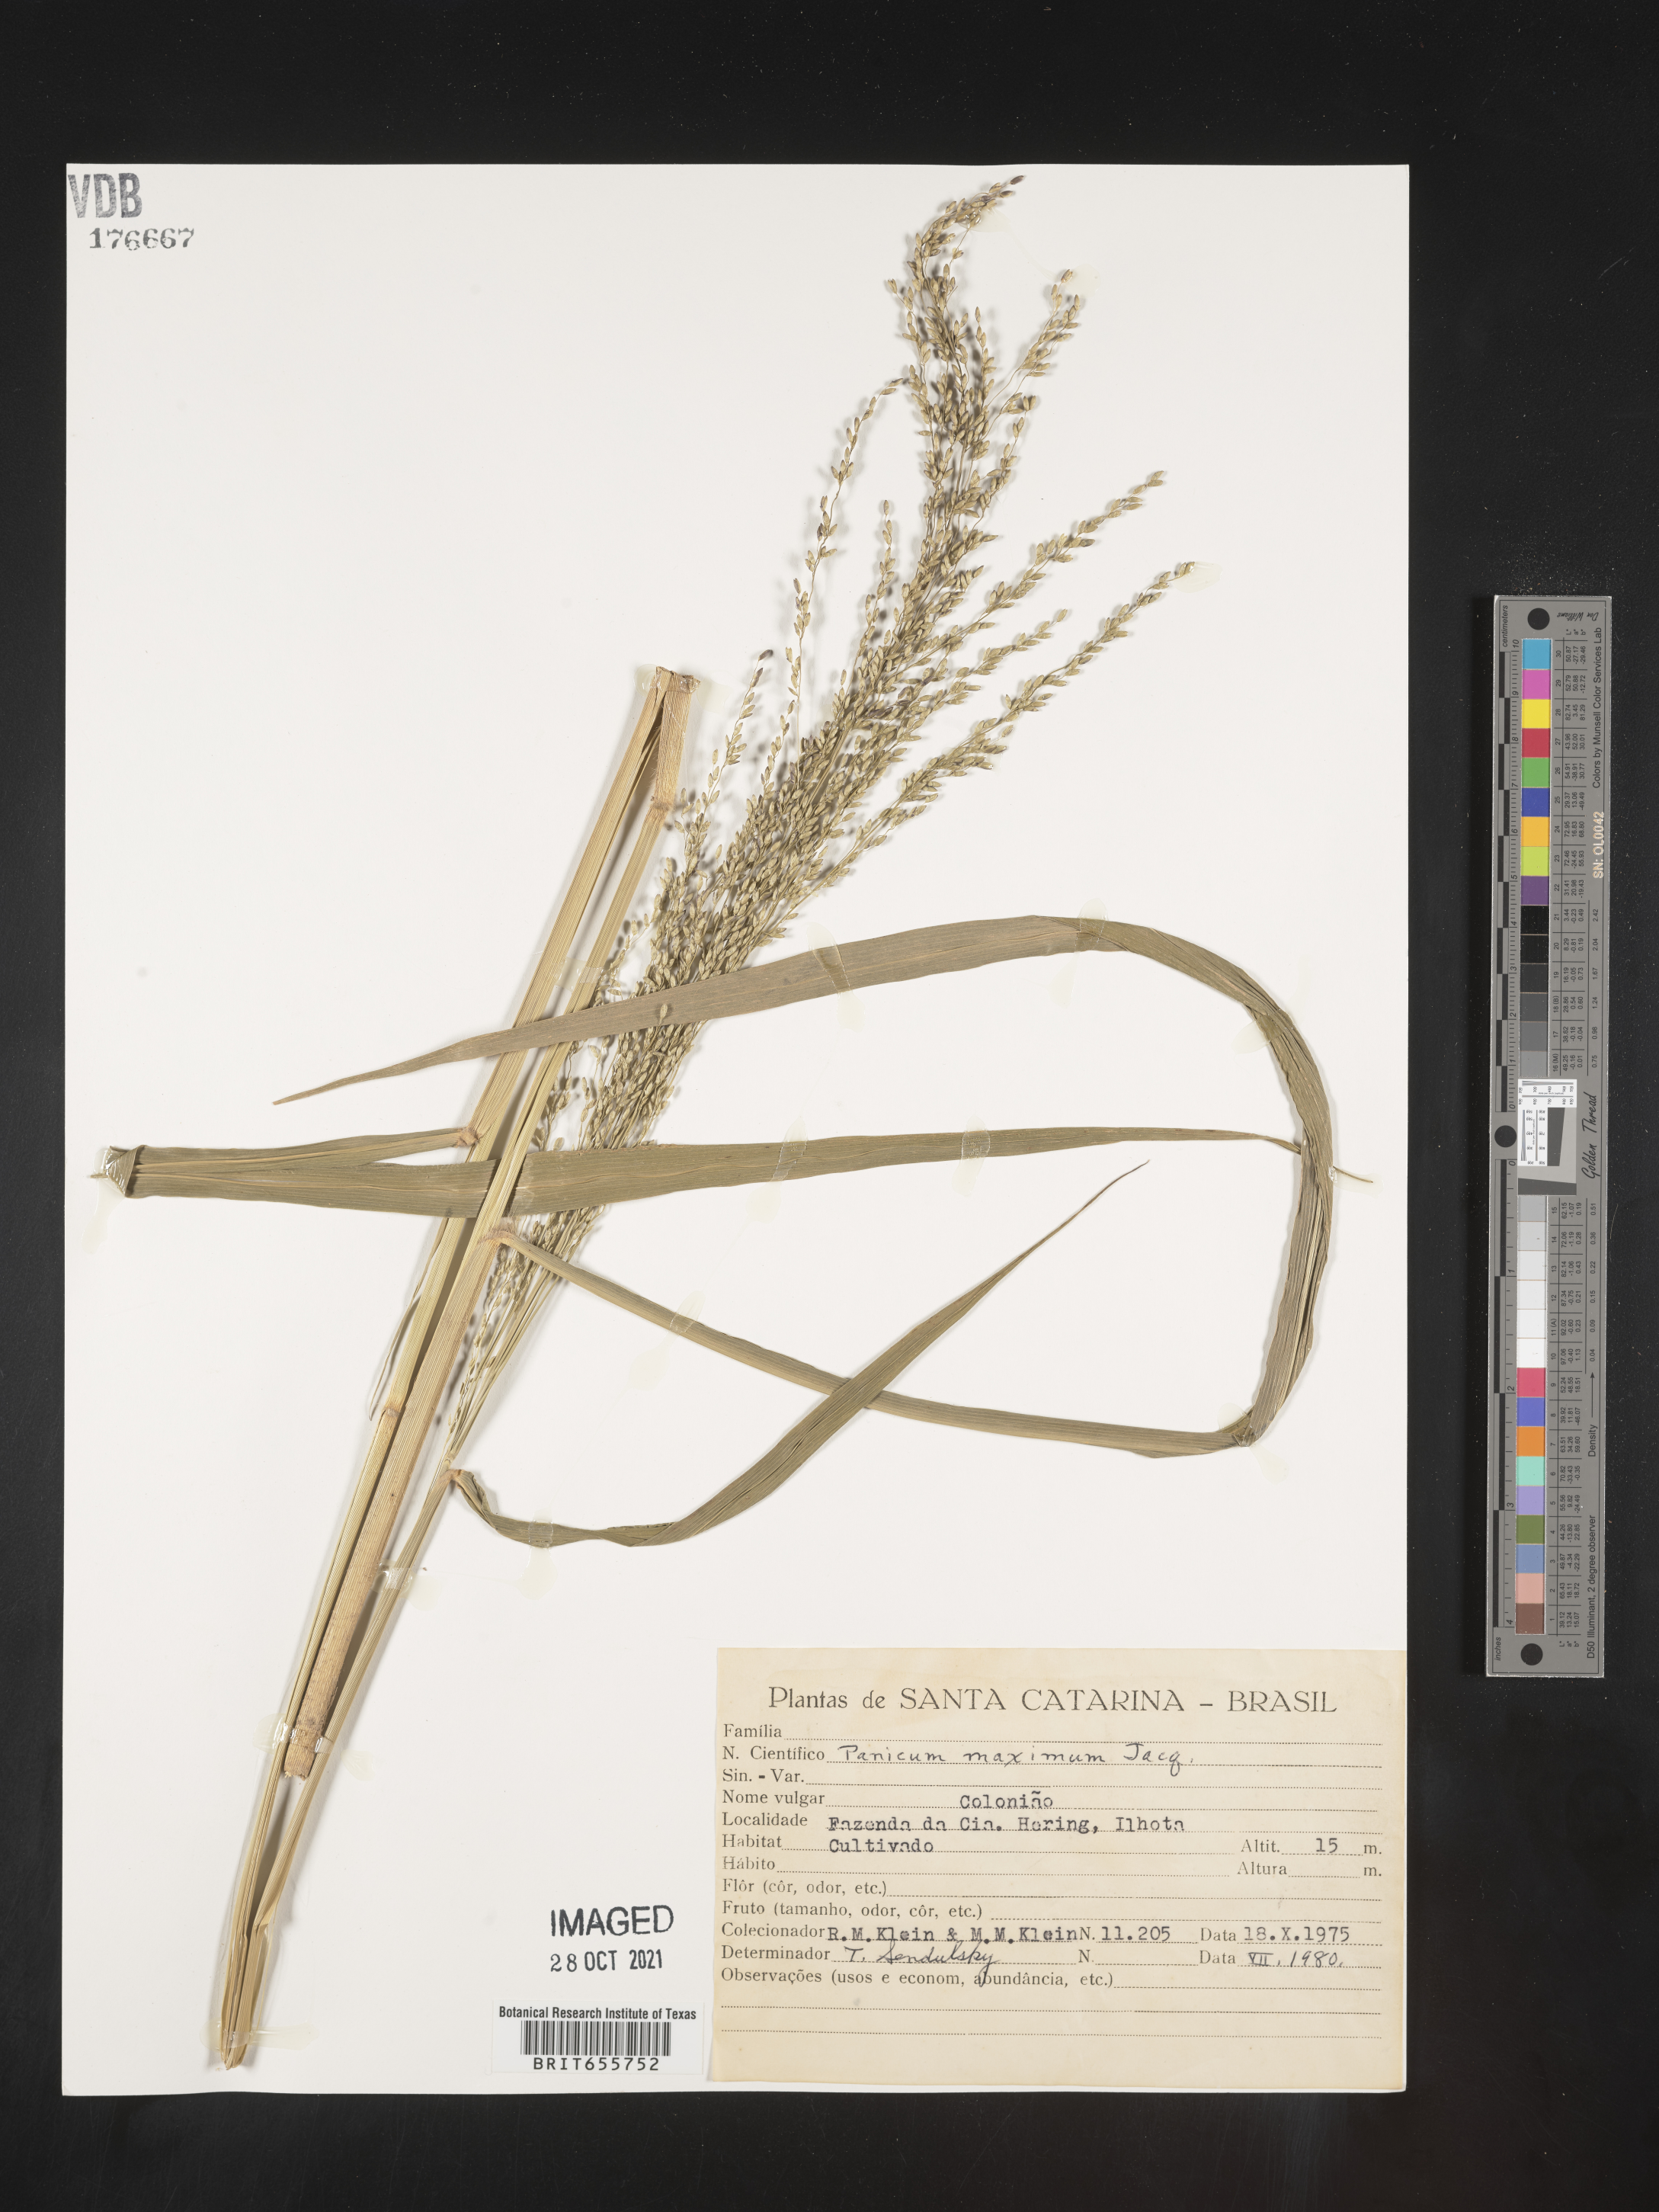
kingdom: Plantae
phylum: Tracheophyta
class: Liliopsida
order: Poales
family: Poaceae
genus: Panicum
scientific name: Panicum
